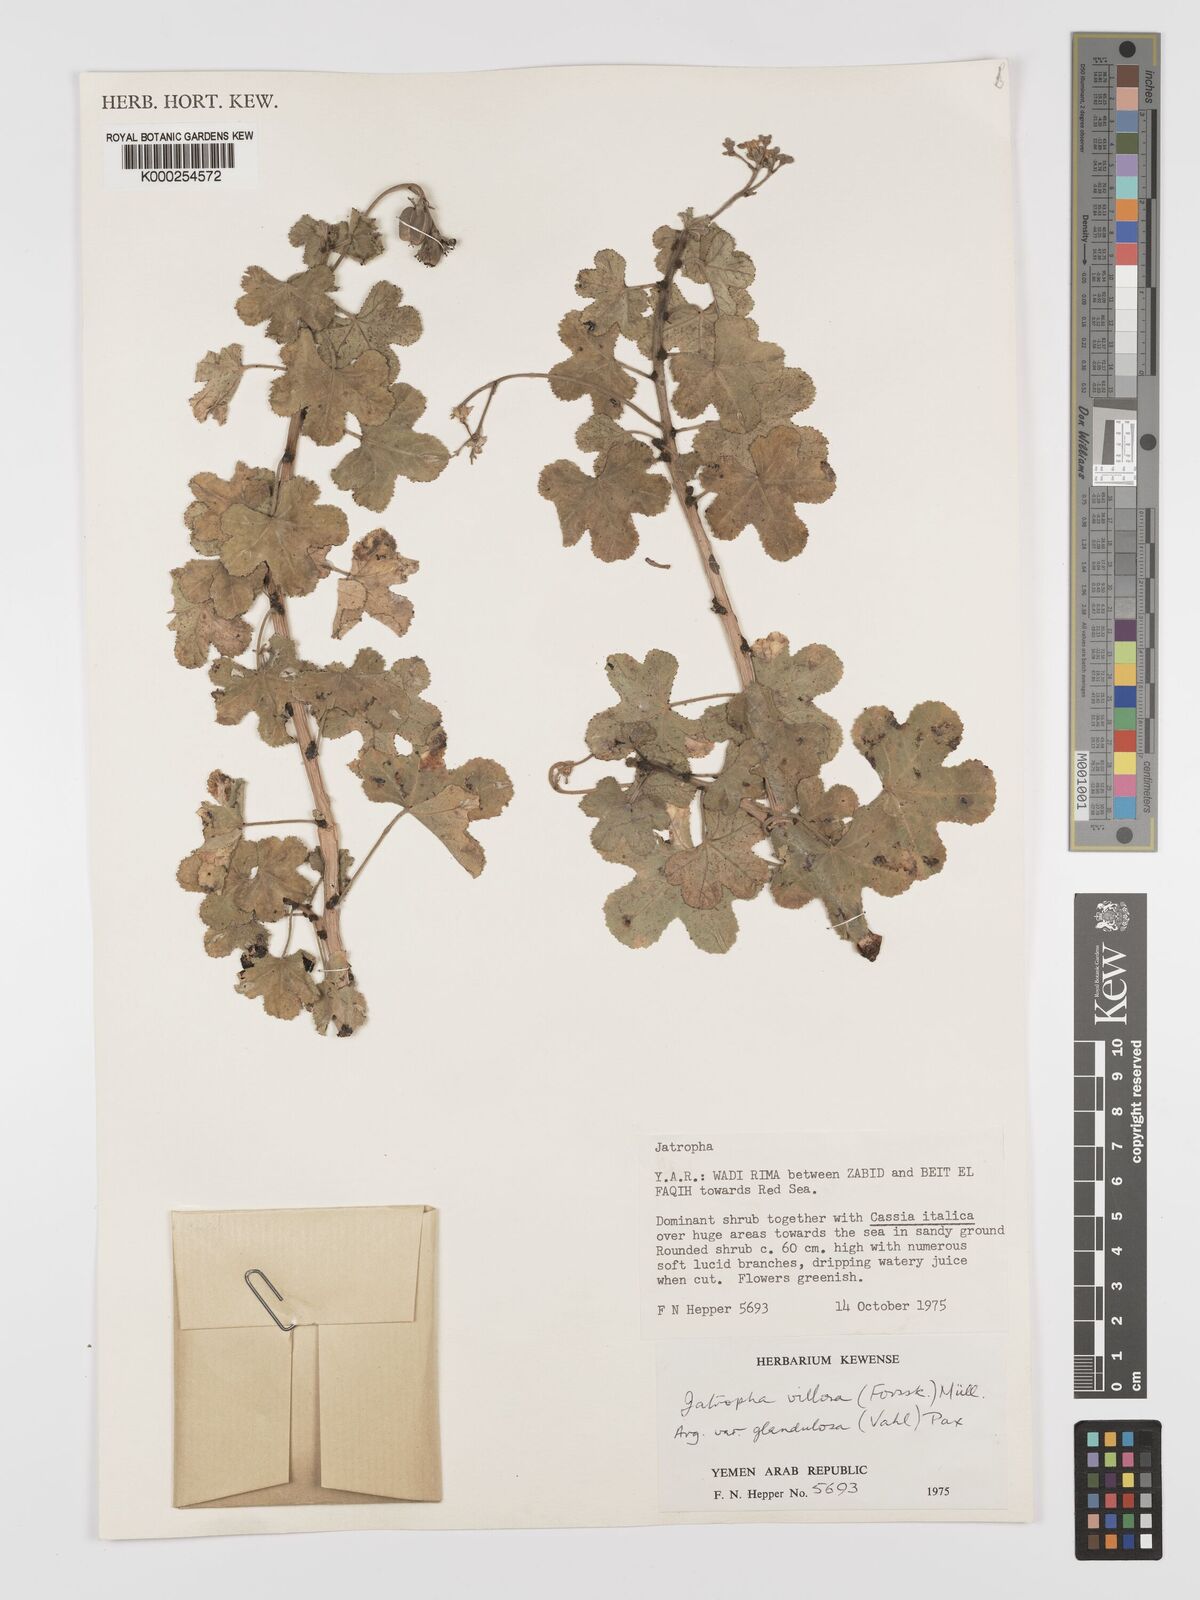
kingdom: Plantae
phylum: Tracheophyta
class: Magnoliopsida
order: Malpighiales
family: Euphorbiaceae
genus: Jatropha
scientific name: Jatropha pelargoniifolia
